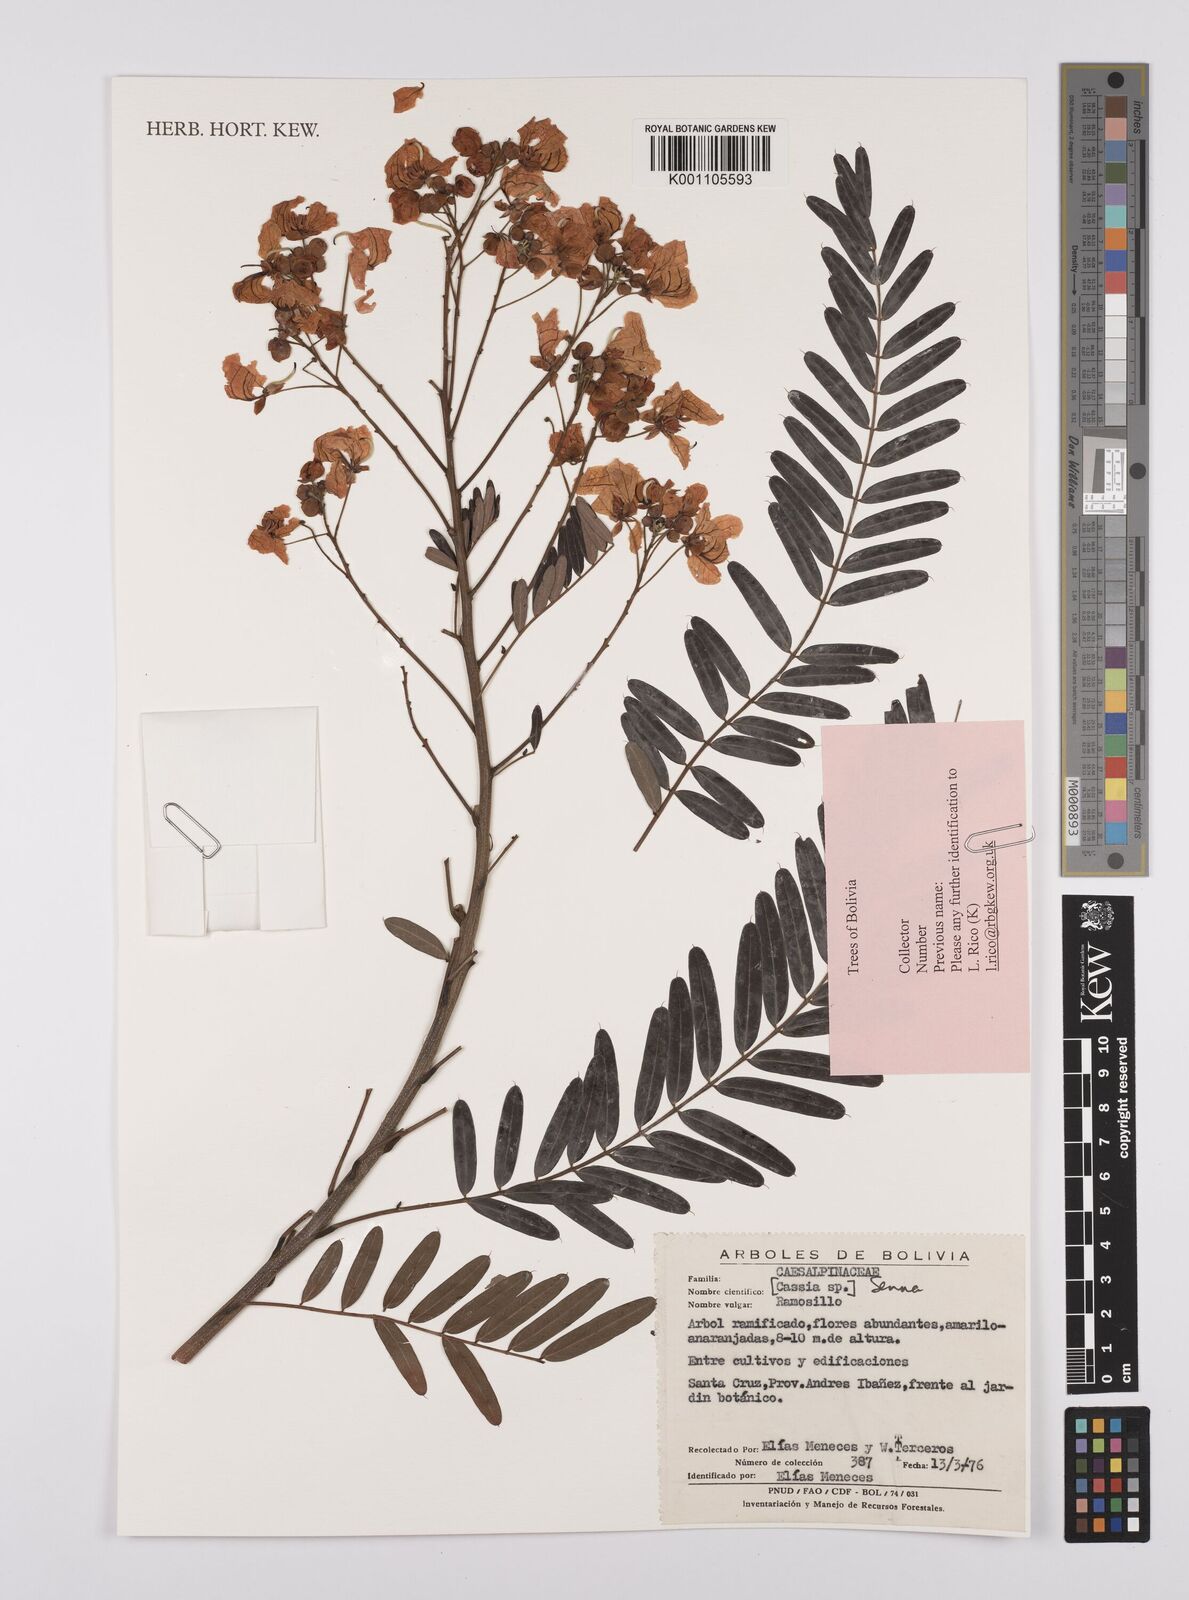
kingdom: Plantae
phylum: Tracheophyta
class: Magnoliopsida
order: Fabales
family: Fabaceae
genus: Senna
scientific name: Senna
